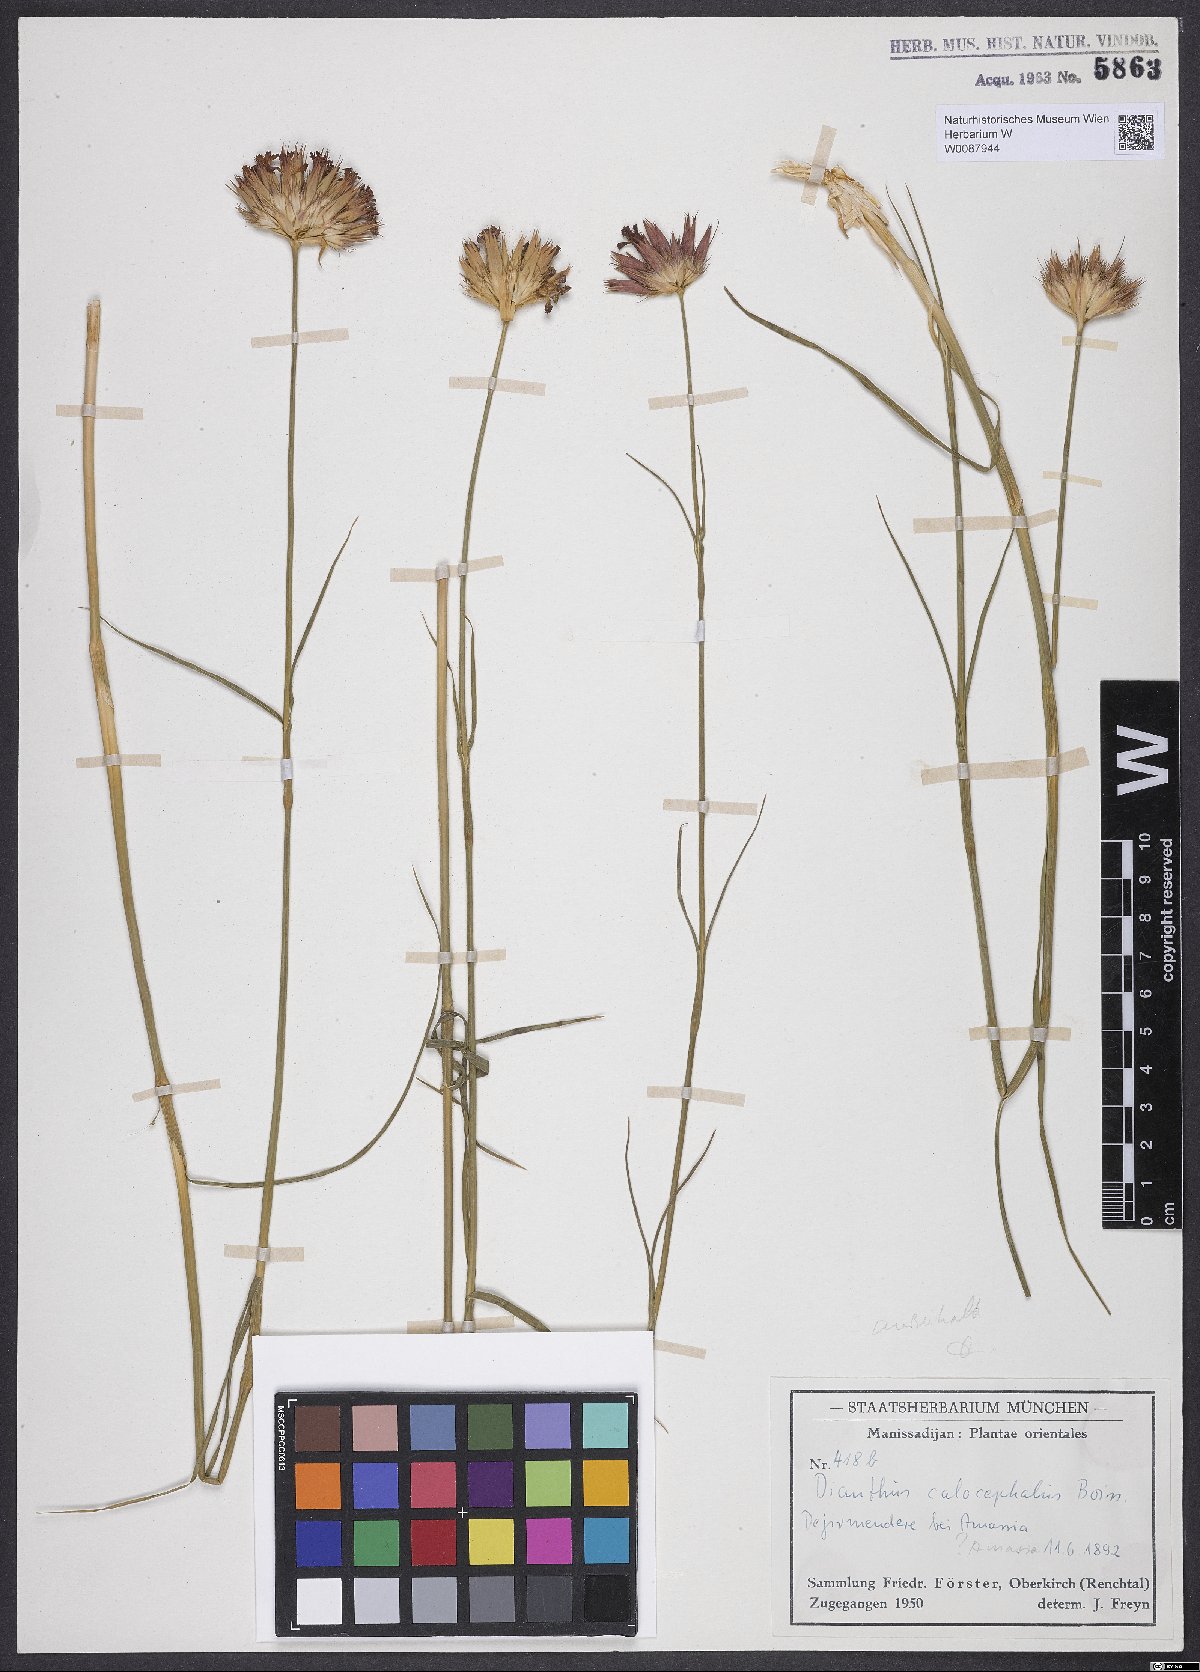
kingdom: Plantae
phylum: Tracheophyta
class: Magnoliopsida
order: Caryophyllales
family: Caryophyllaceae
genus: Dianthus
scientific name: Dianthus cruentus
